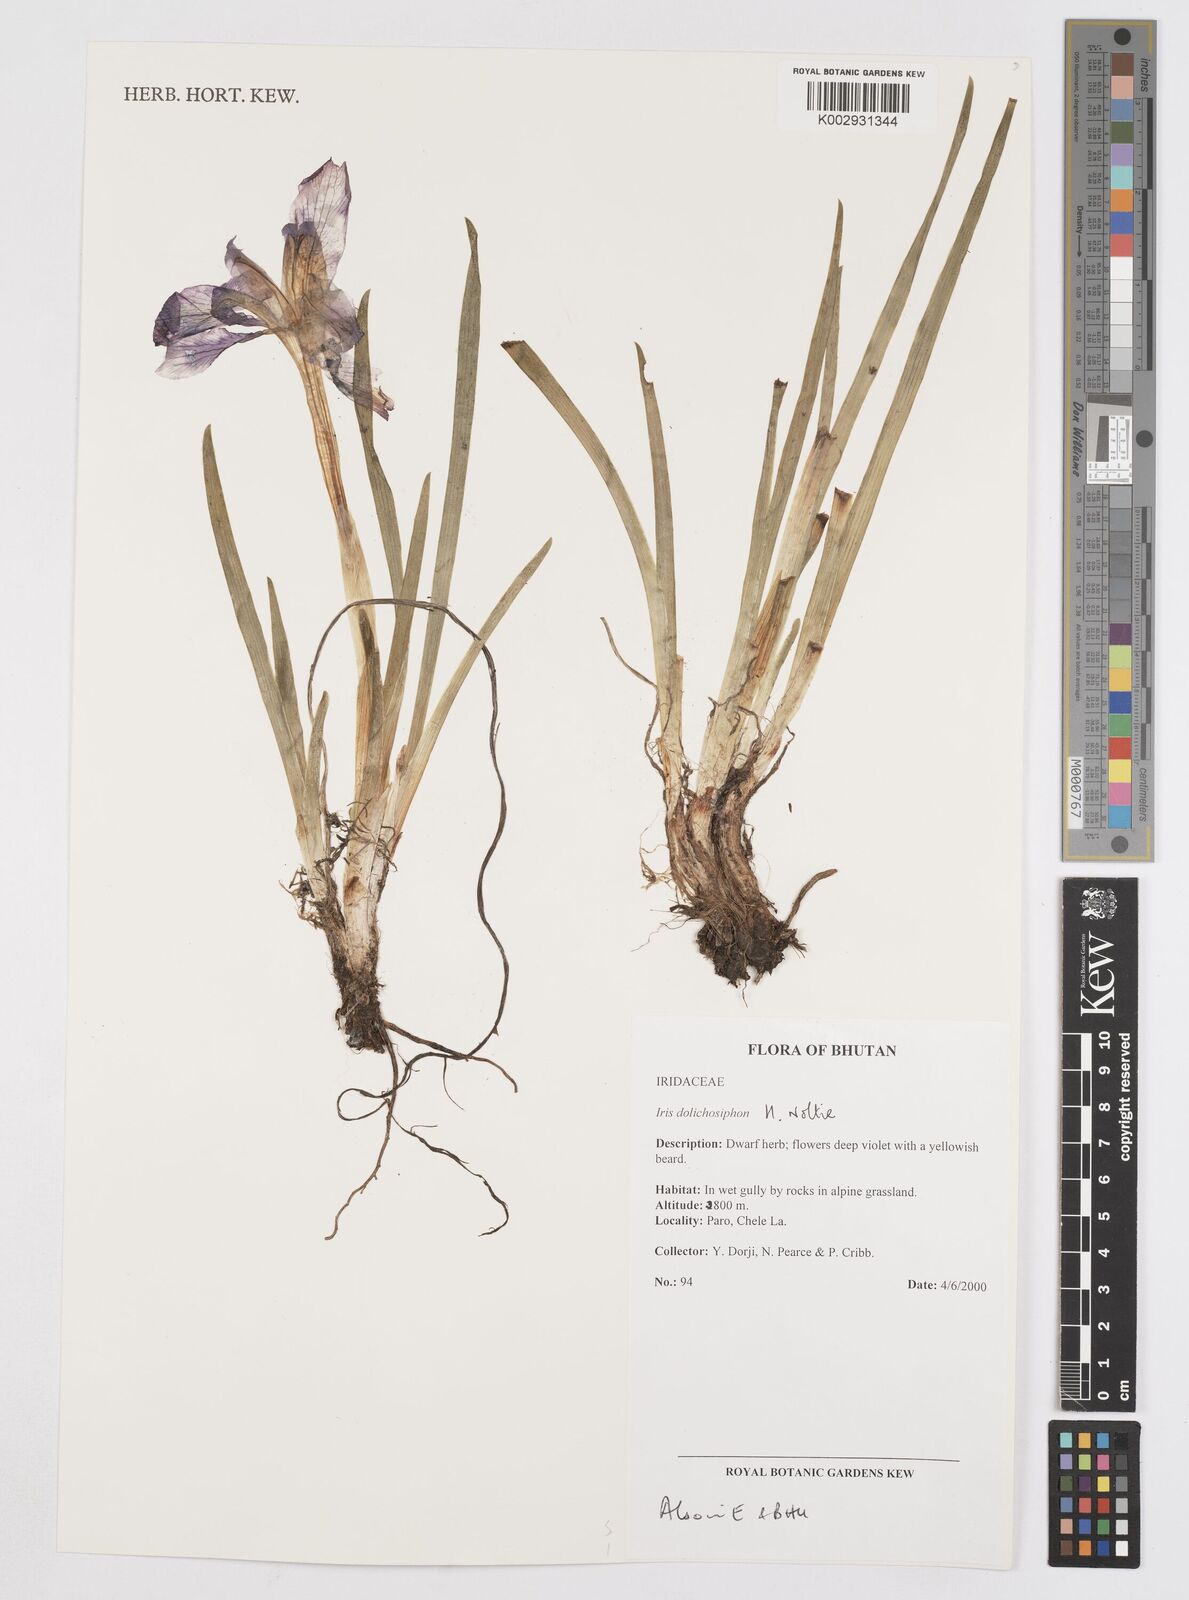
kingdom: Plantae
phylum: Tracheophyta
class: Liliopsida
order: Asparagales
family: Iridaceae
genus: Iris
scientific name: Iris dolichosiphon
